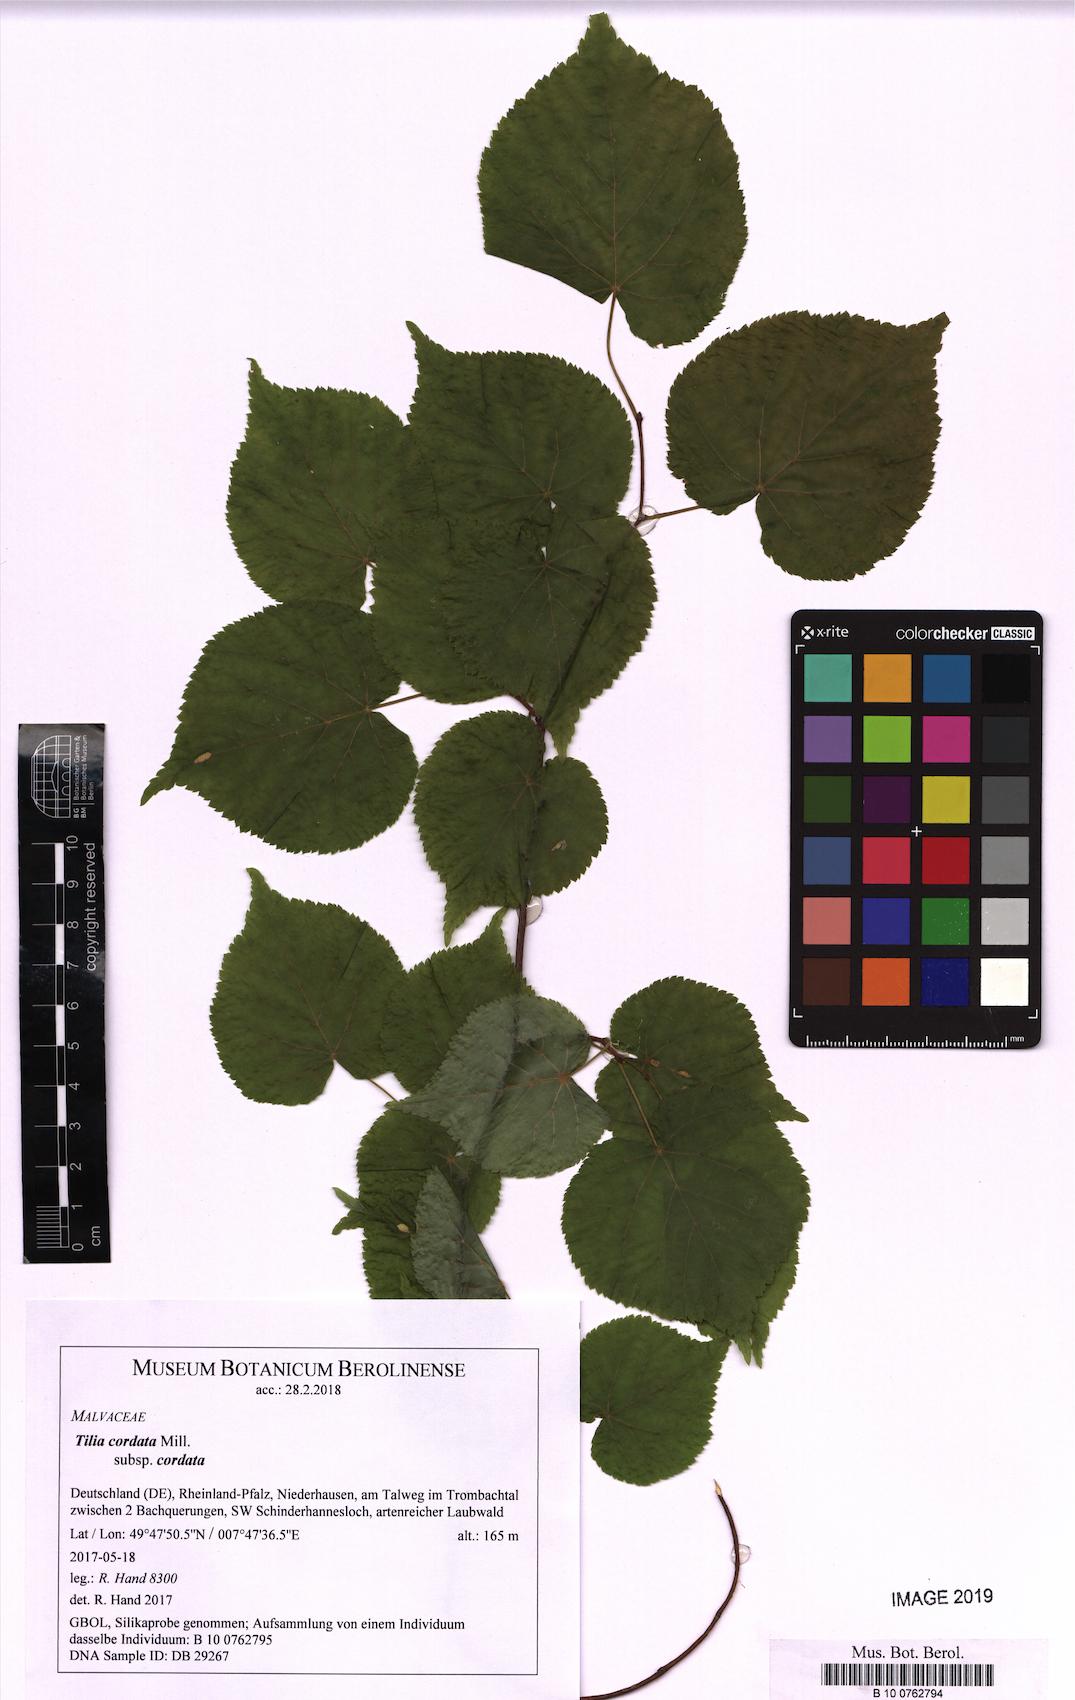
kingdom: Plantae
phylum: Tracheophyta
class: Magnoliopsida
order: Malvales
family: Malvaceae
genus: Tilia
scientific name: Tilia cordata
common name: Small-leaved lime
